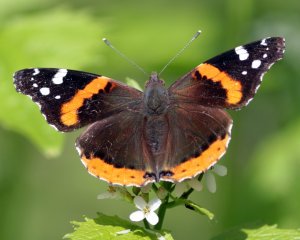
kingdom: Animalia
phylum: Arthropoda
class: Insecta
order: Lepidoptera
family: Nymphalidae
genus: Vanessa
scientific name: Vanessa atalanta
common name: Red Admiral
